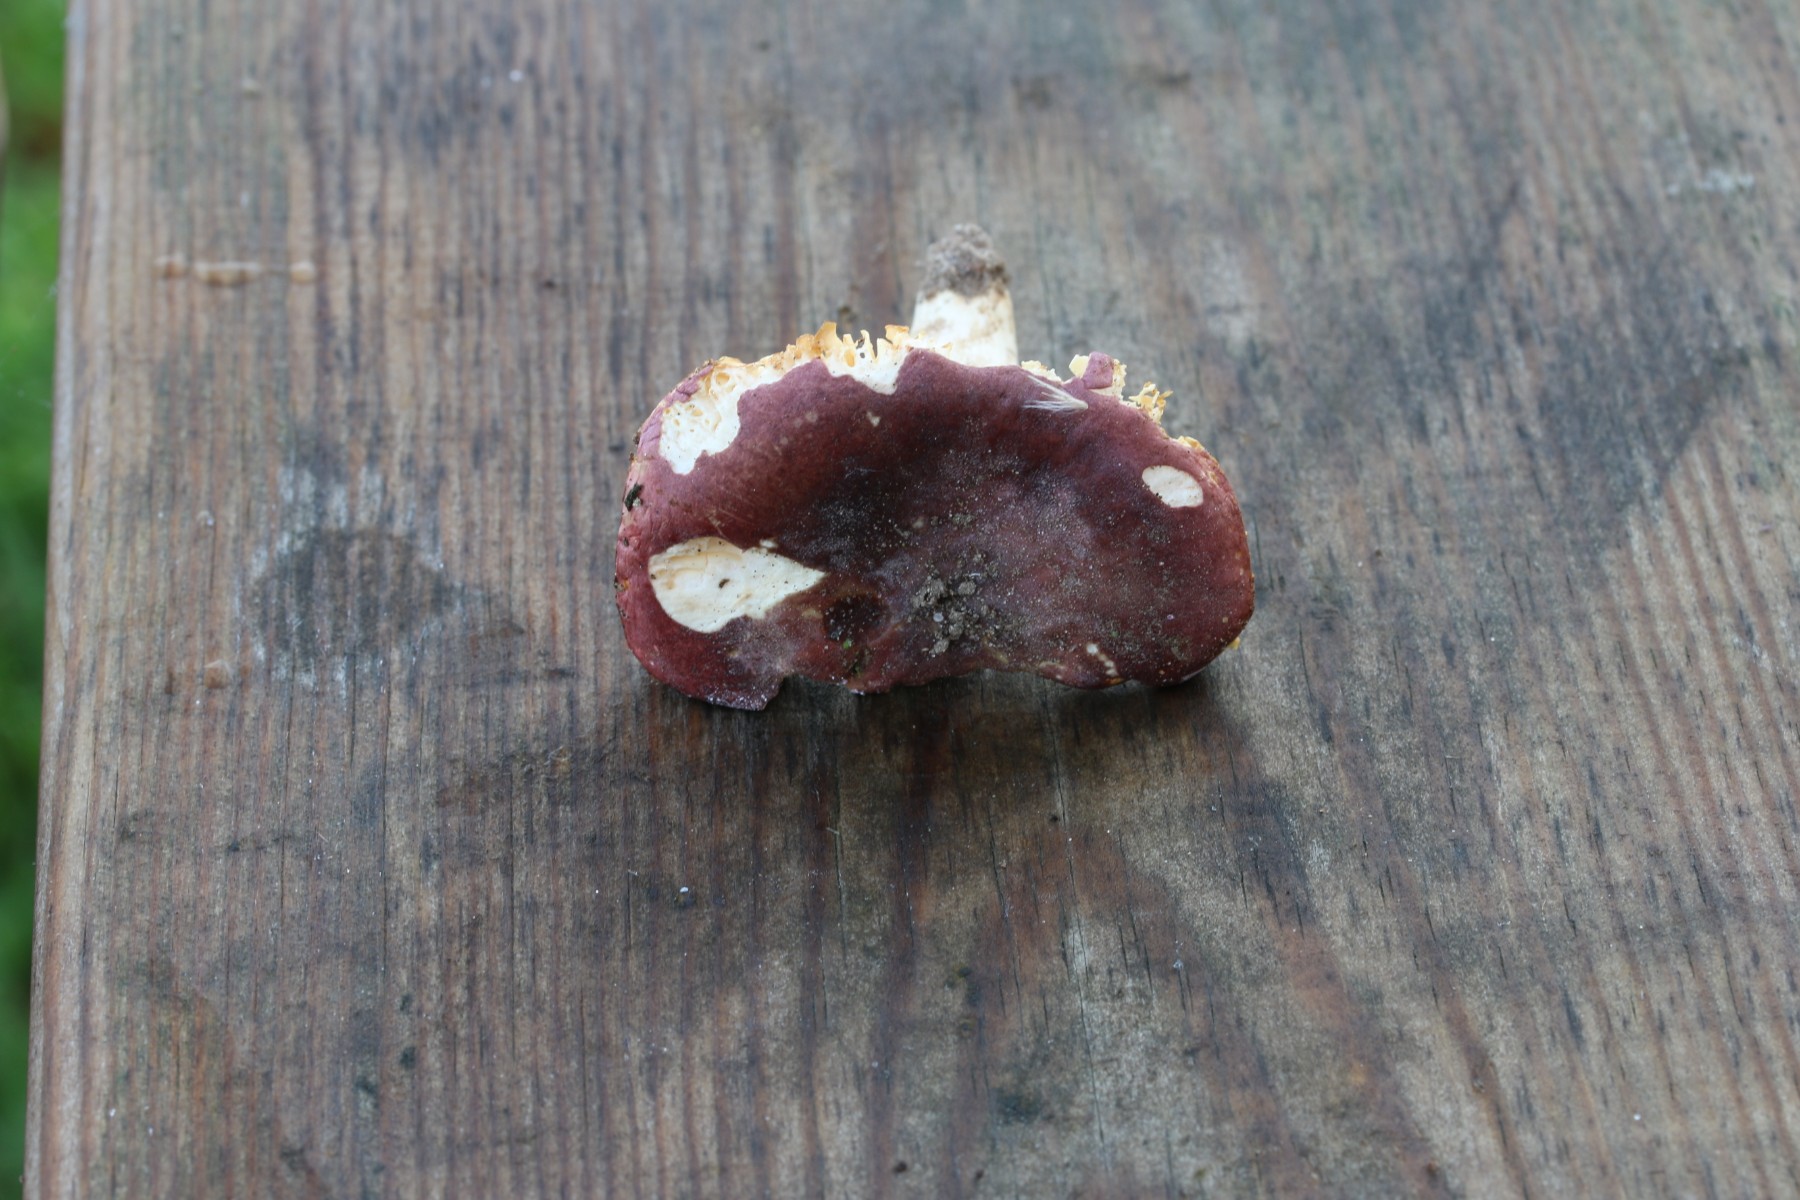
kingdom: Fungi
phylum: Basidiomycota
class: Agaricomycetes
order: Russulales
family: Russulaceae
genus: Russula
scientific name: Russula turci
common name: jod-skørhat
